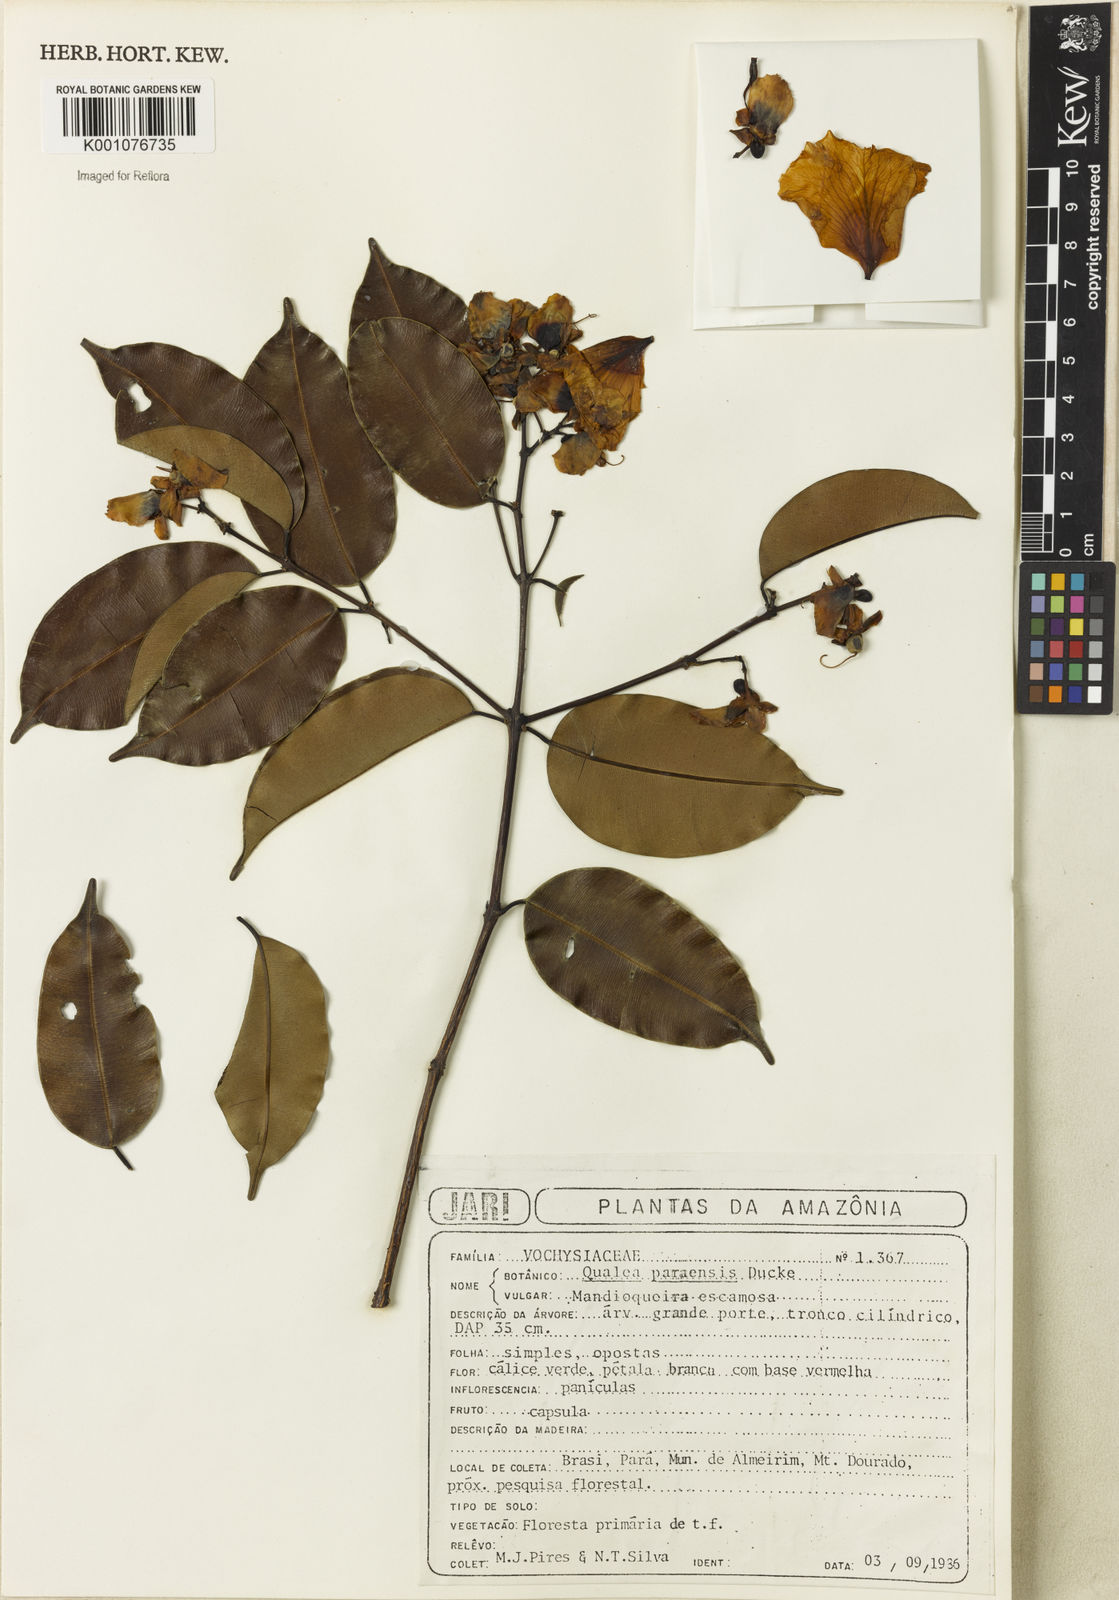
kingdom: Plantae
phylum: Tracheophyta
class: Magnoliopsida
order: Myrtales
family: Vochysiaceae
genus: Qualea
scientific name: Qualea paraensis
